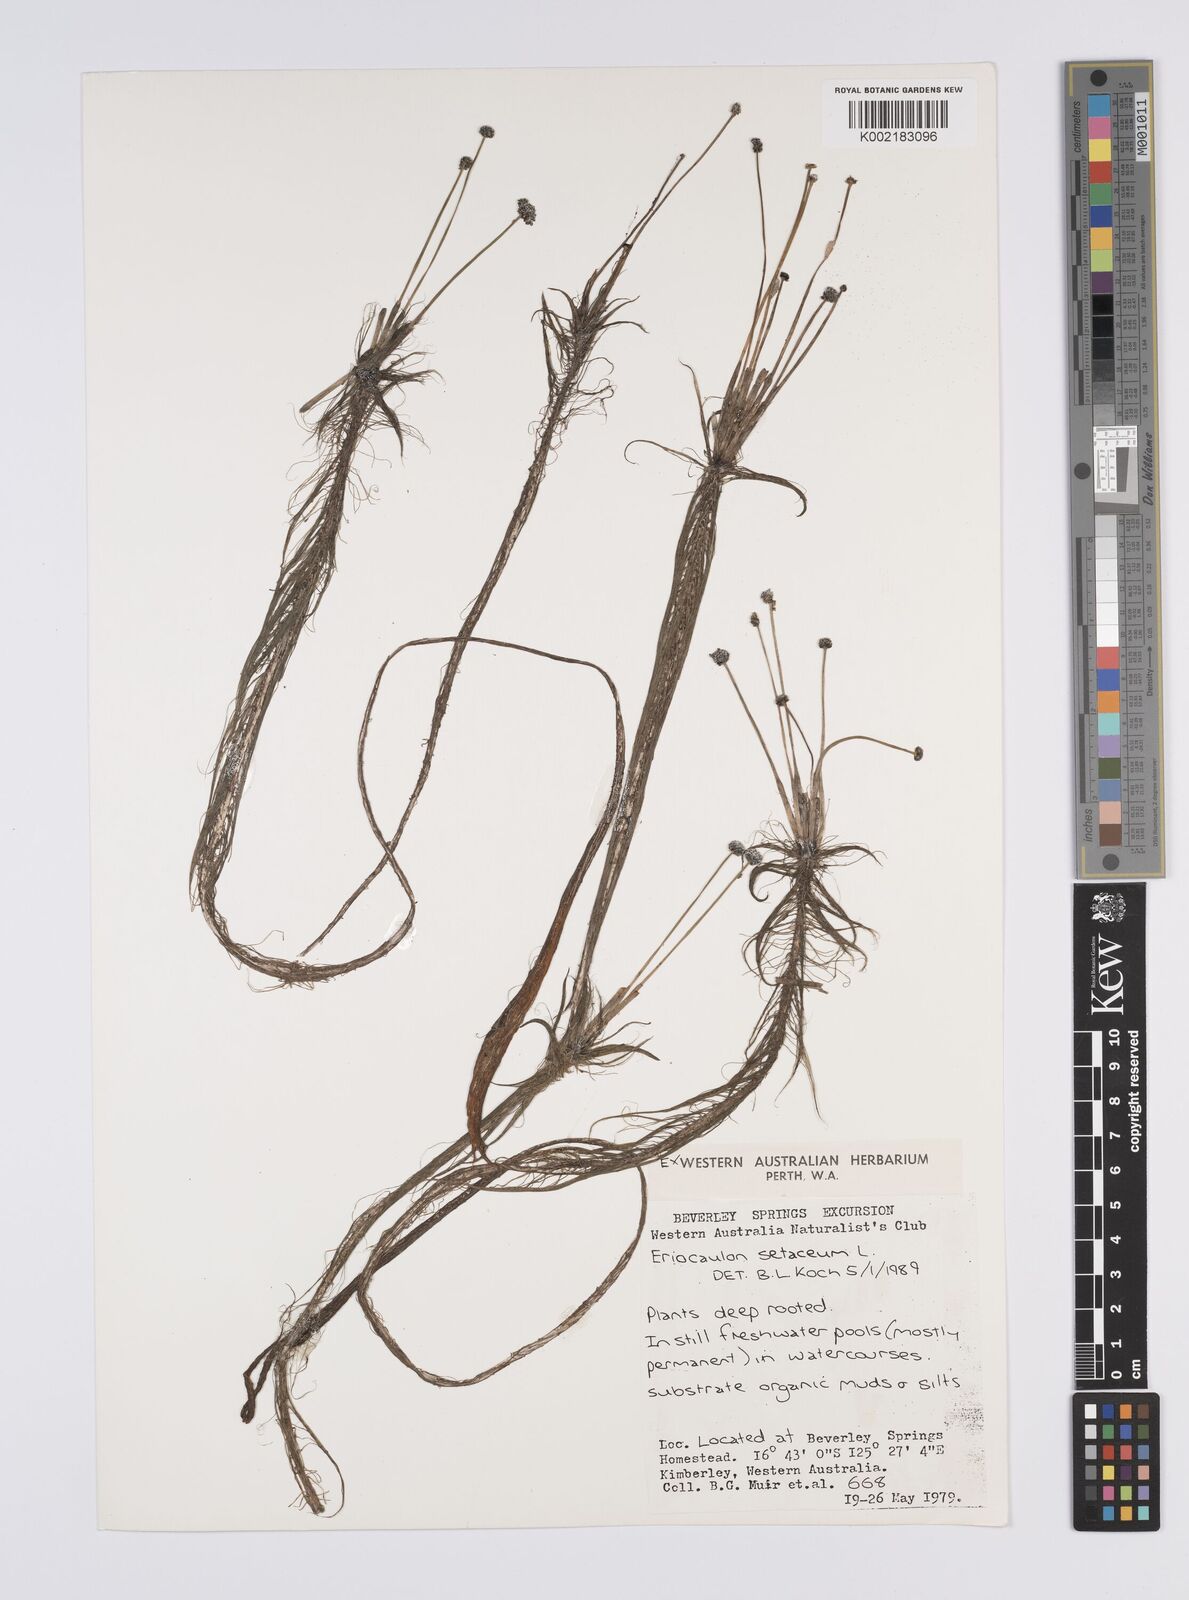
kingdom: Plantae
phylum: Tracheophyta
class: Liliopsida
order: Poales
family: Eriocaulaceae
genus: Eriocaulon
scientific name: Eriocaulon setaceum
